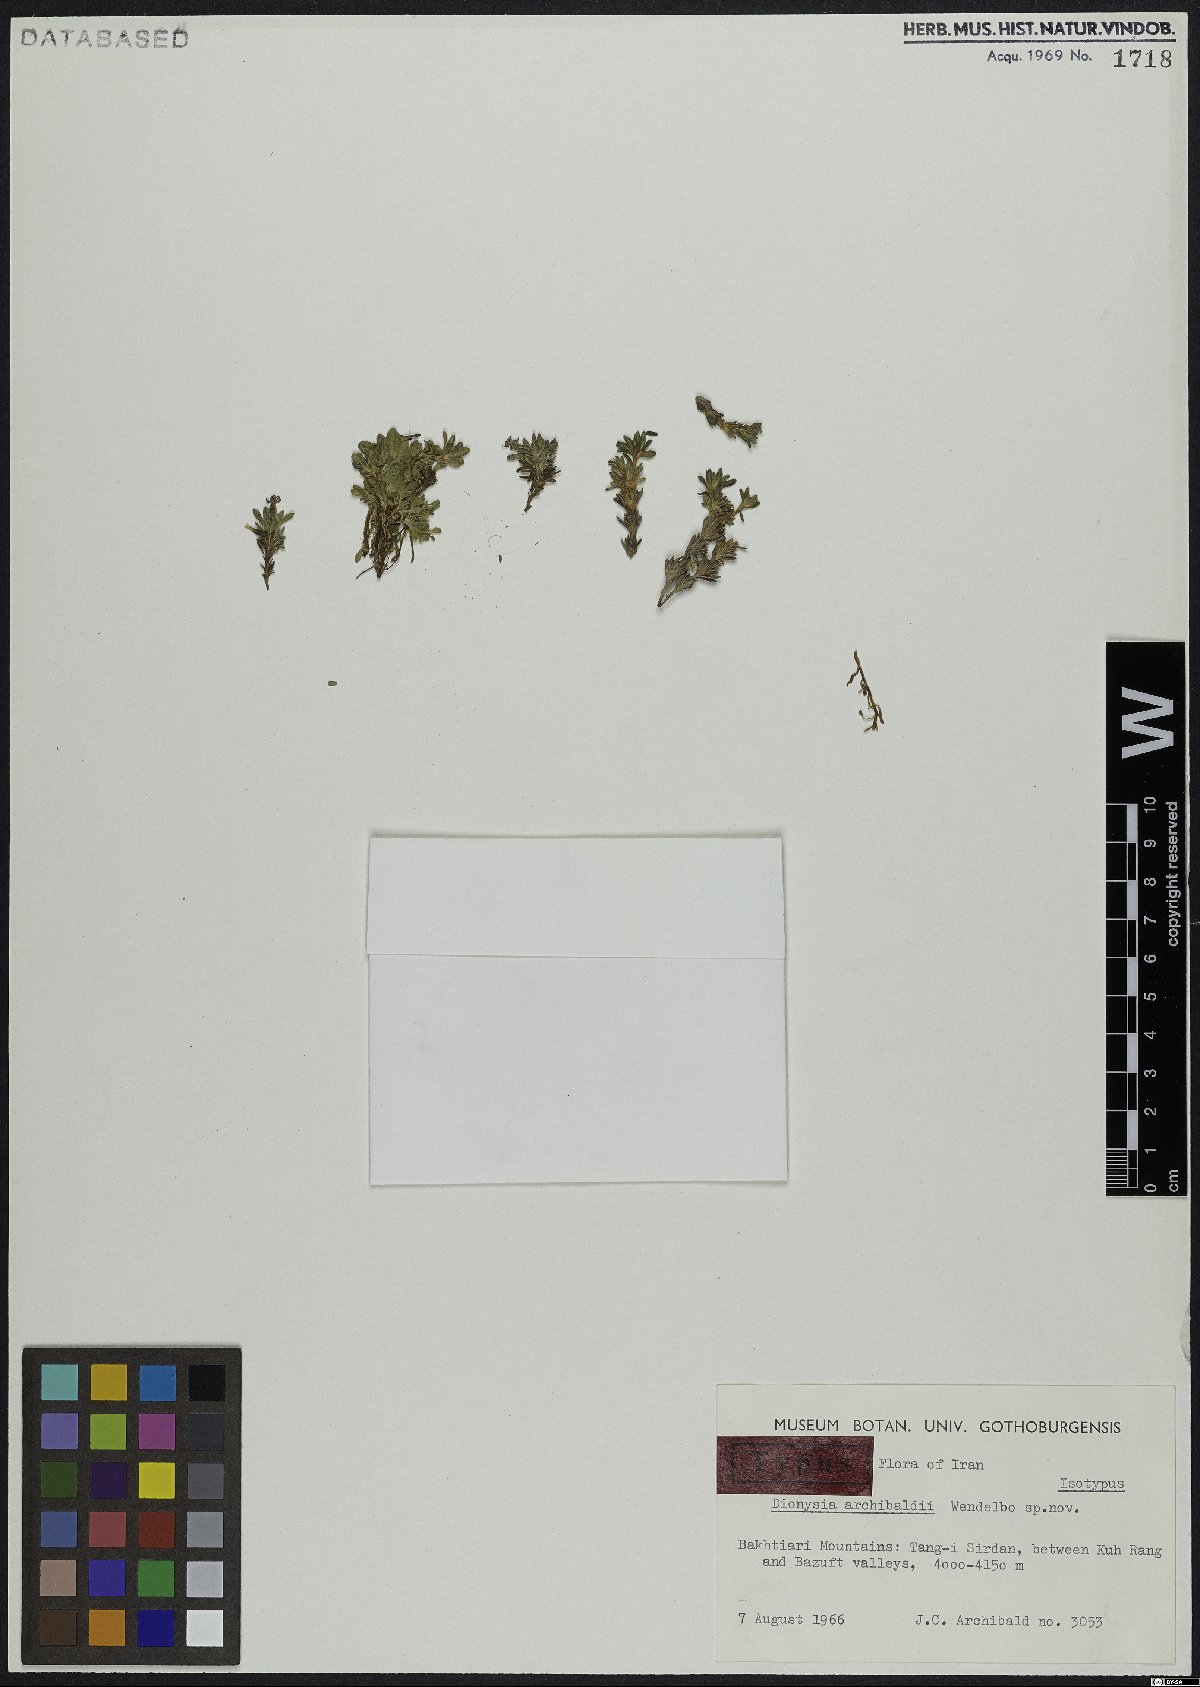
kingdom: Plantae
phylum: Tracheophyta
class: Magnoliopsida
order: Ericales
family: Primulaceae
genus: Dionysia
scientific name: Dionysia archibaldii
